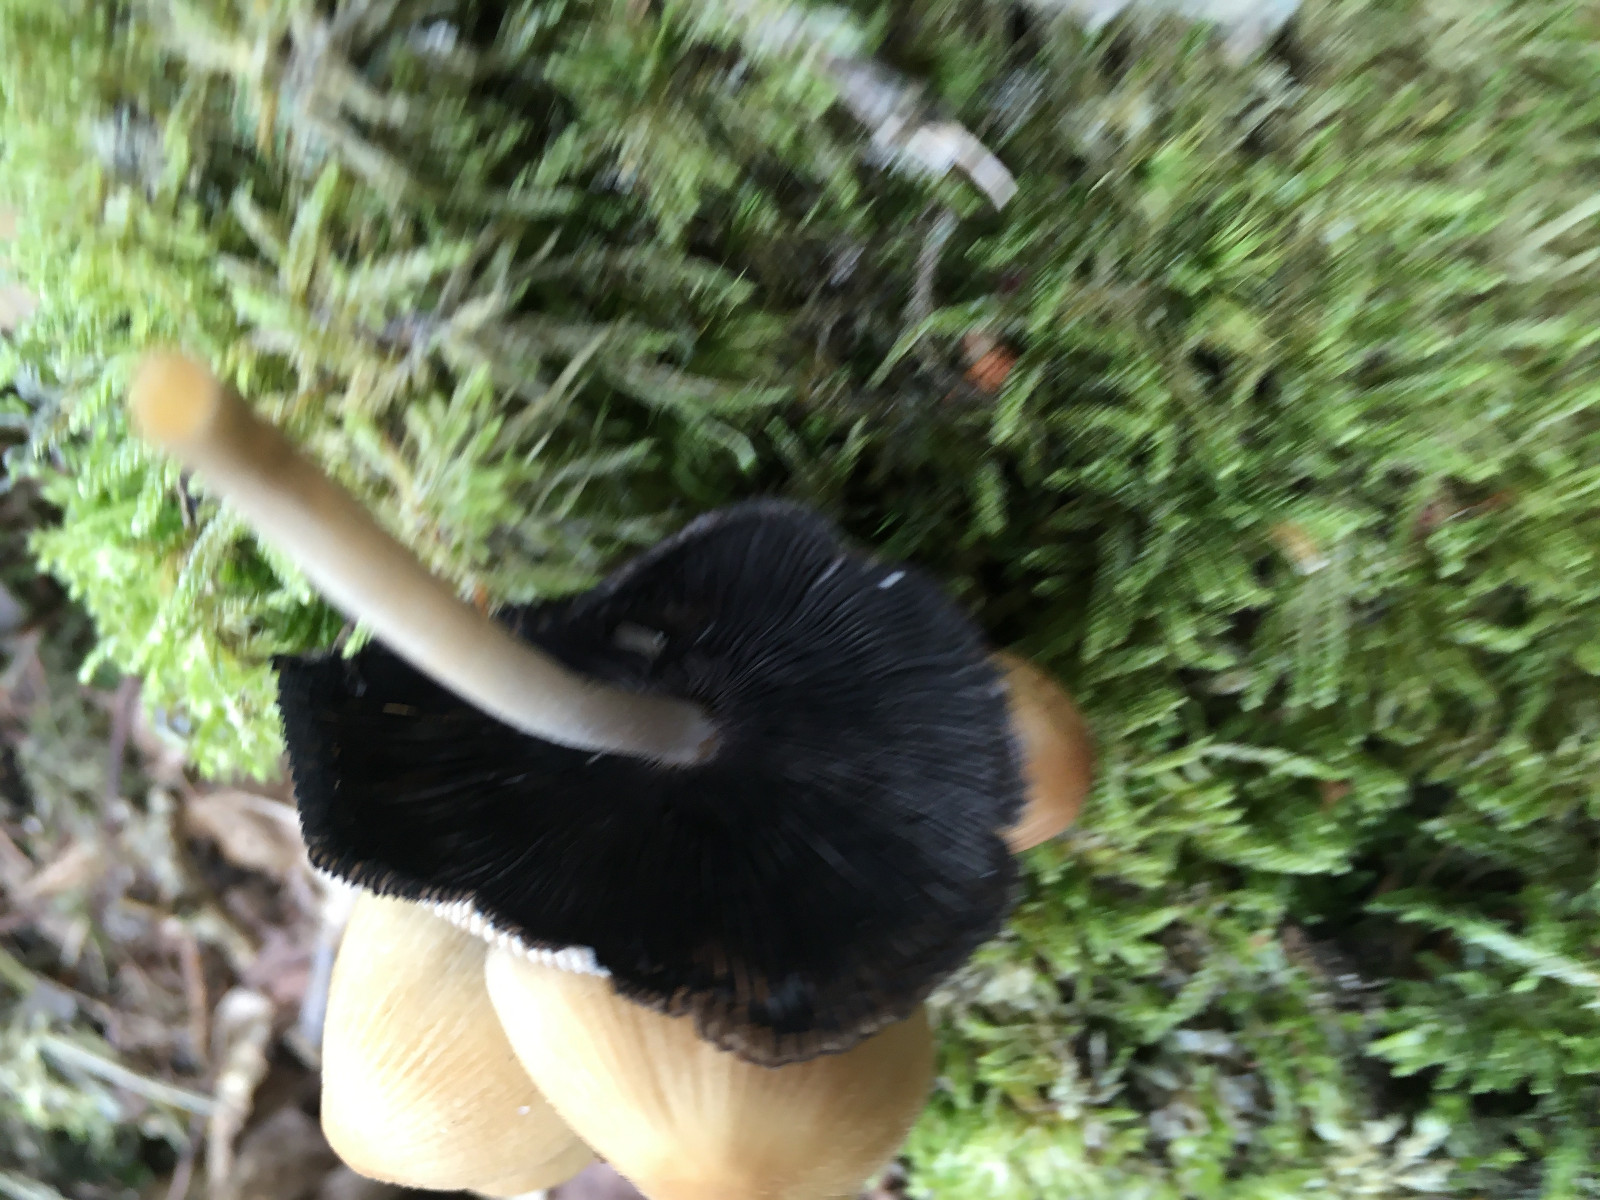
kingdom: Fungi
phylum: Basidiomycota
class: Agaricomycetes
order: Agaricales
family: Psathyrellaceae
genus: Coprinellus
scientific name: Coprinellus
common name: blækhat
